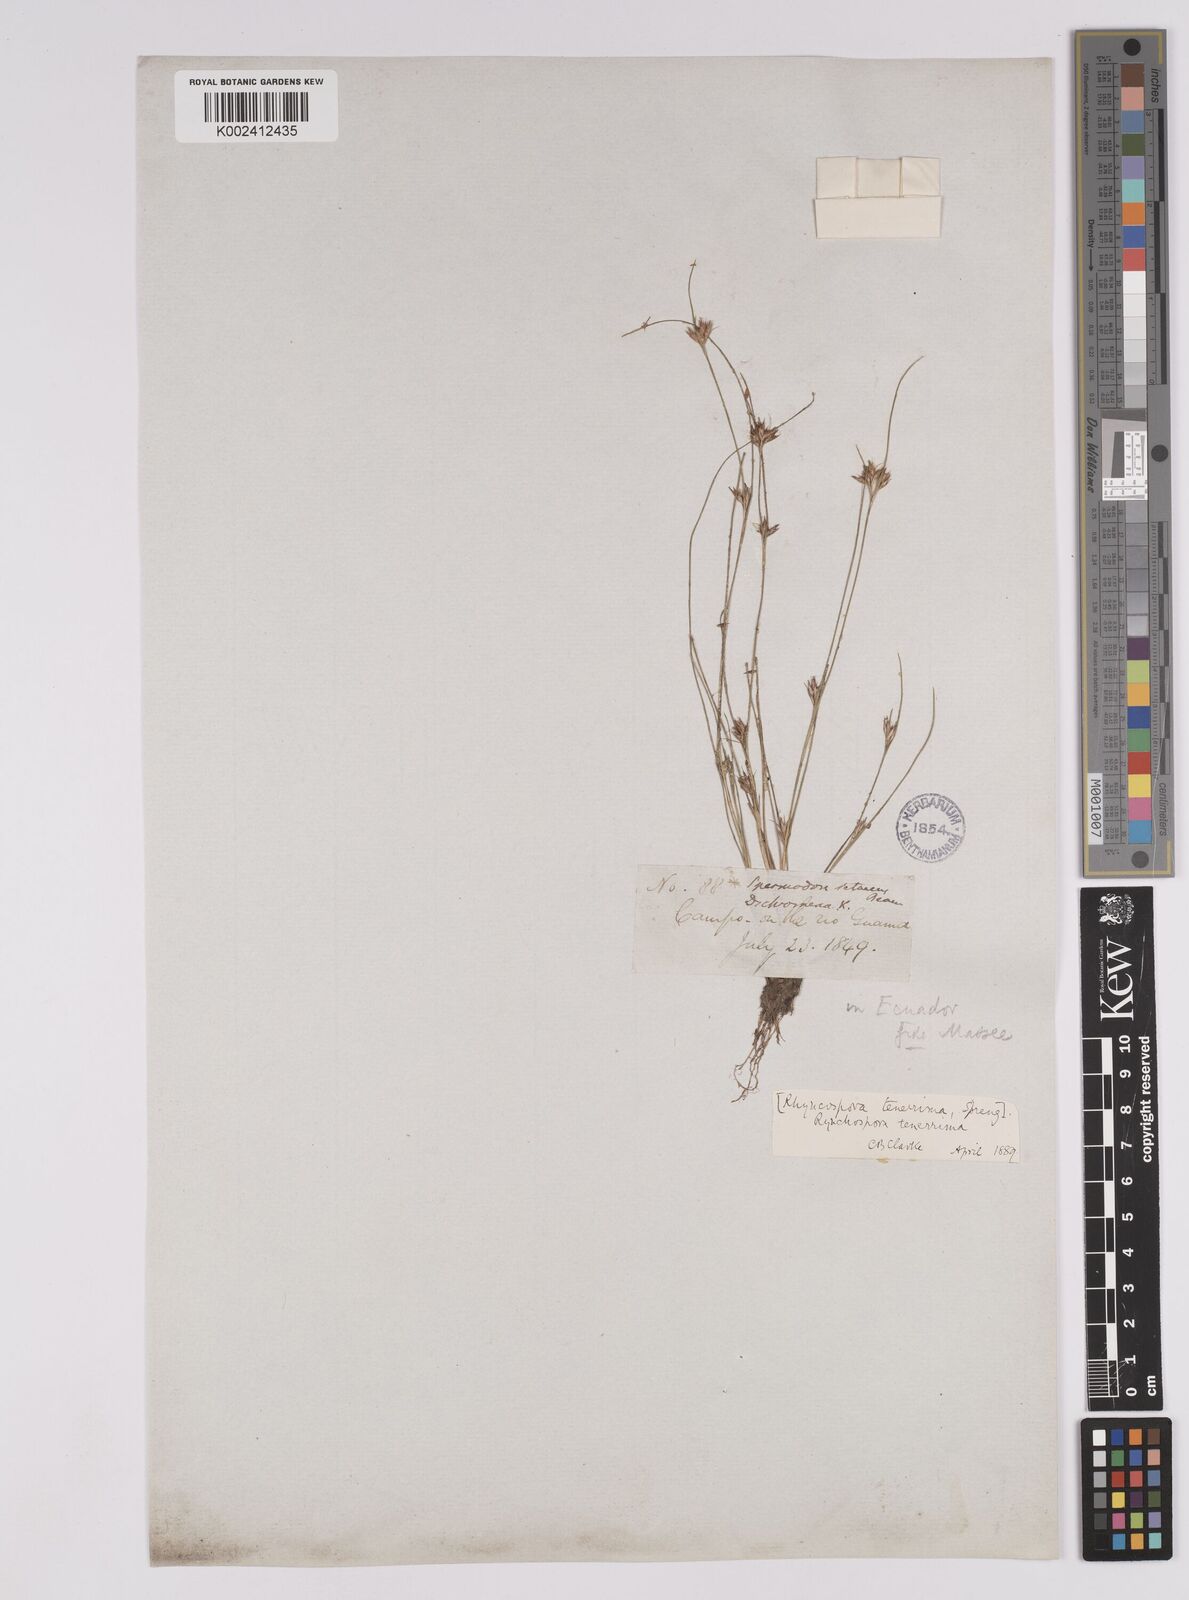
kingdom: Plantae
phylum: Tracheophyta
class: Liliopsida
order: Poales
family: Cyperaceae
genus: Rhynchospora
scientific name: Rhynchospora tenerrima
